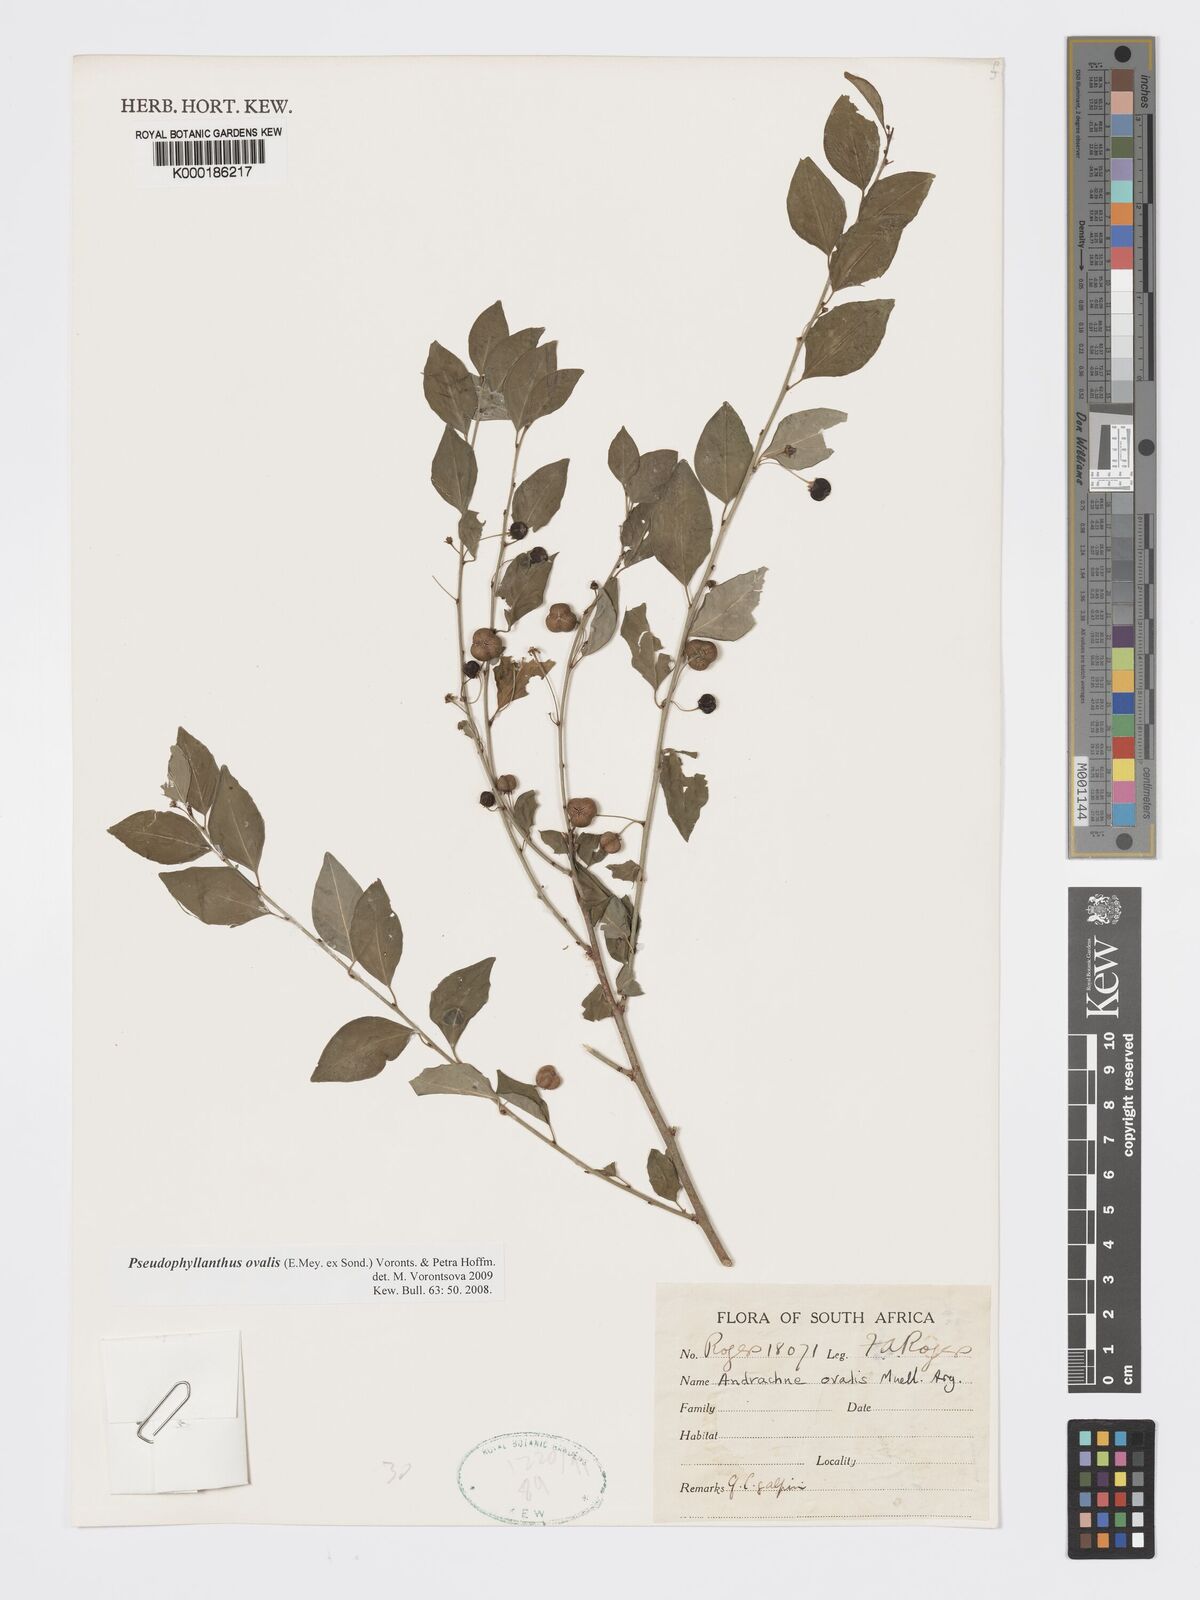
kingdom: Plantae
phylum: Tracheophyta
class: Magnoliopsida
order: Malpighiales
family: Phyllanthaceae
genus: Pseudophyllanthus
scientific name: Pseudophyllanthus ovalis
